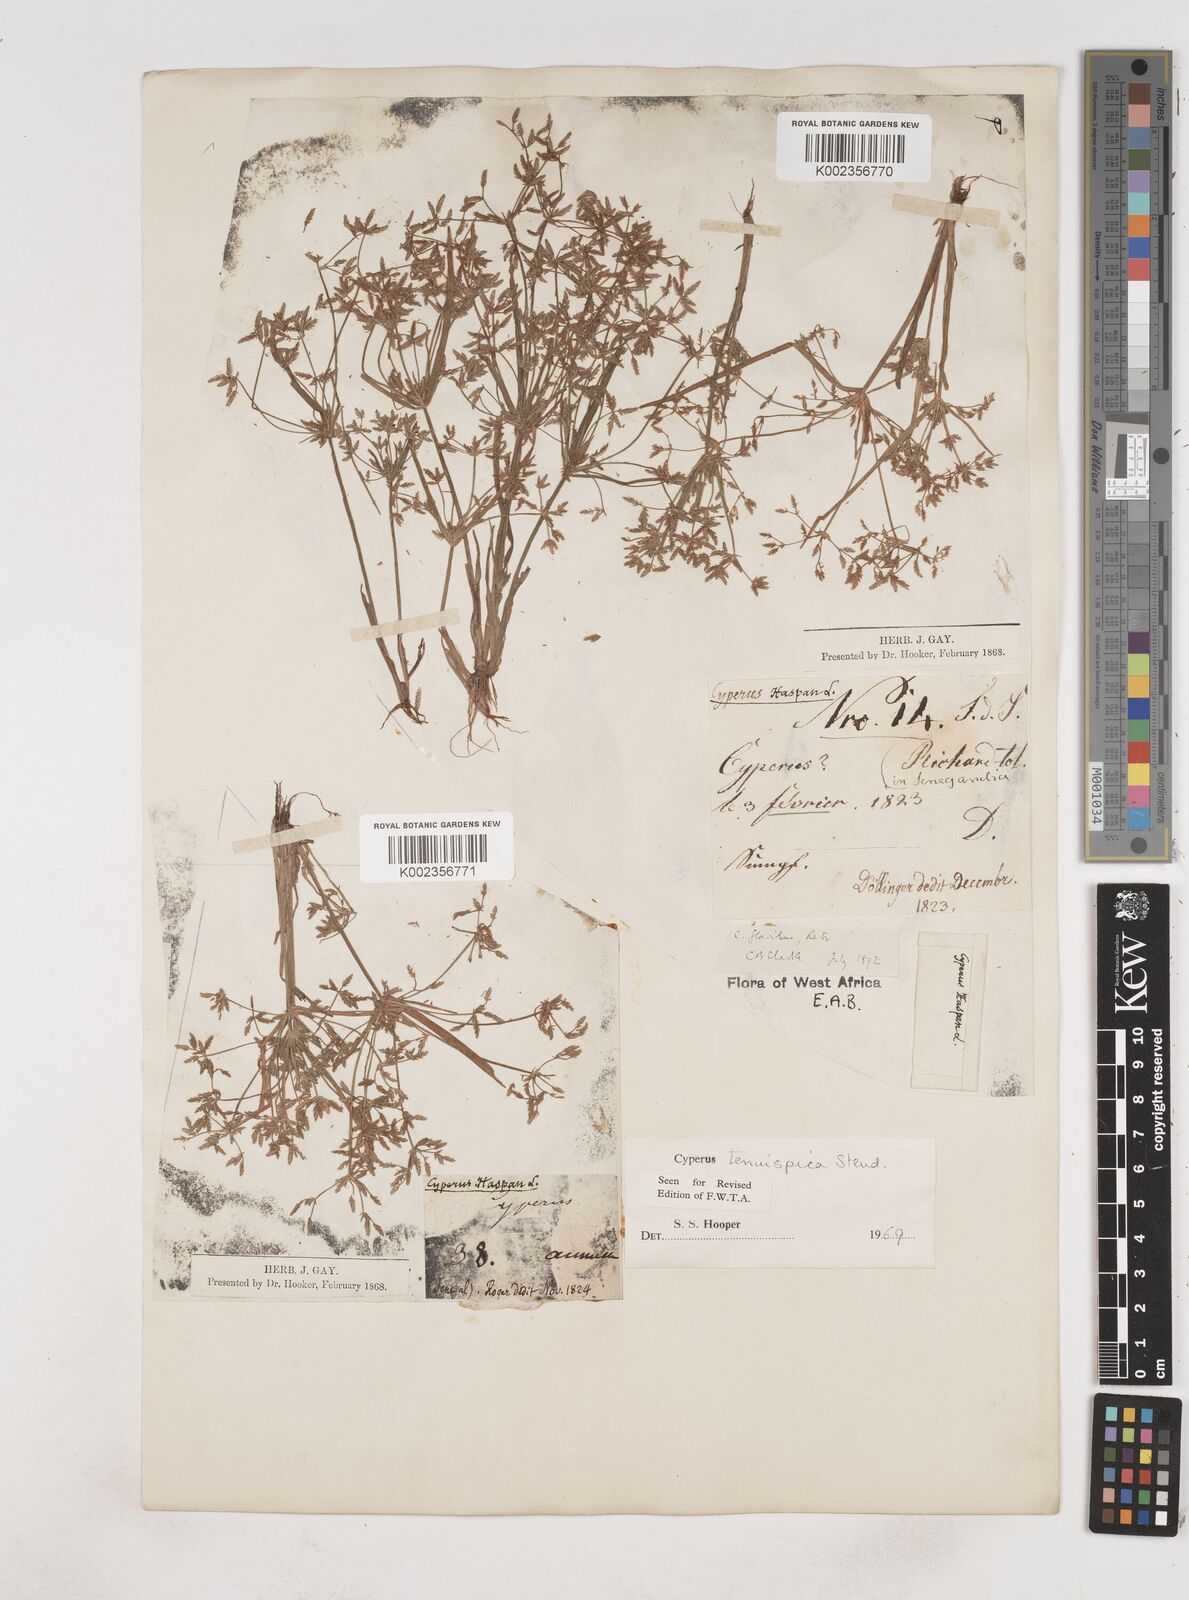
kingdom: Plantae
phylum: Tracheophyta
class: Liliopsida
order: Poales
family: Cyperaceae
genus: Cyperus
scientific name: Cyperus tenuispica
